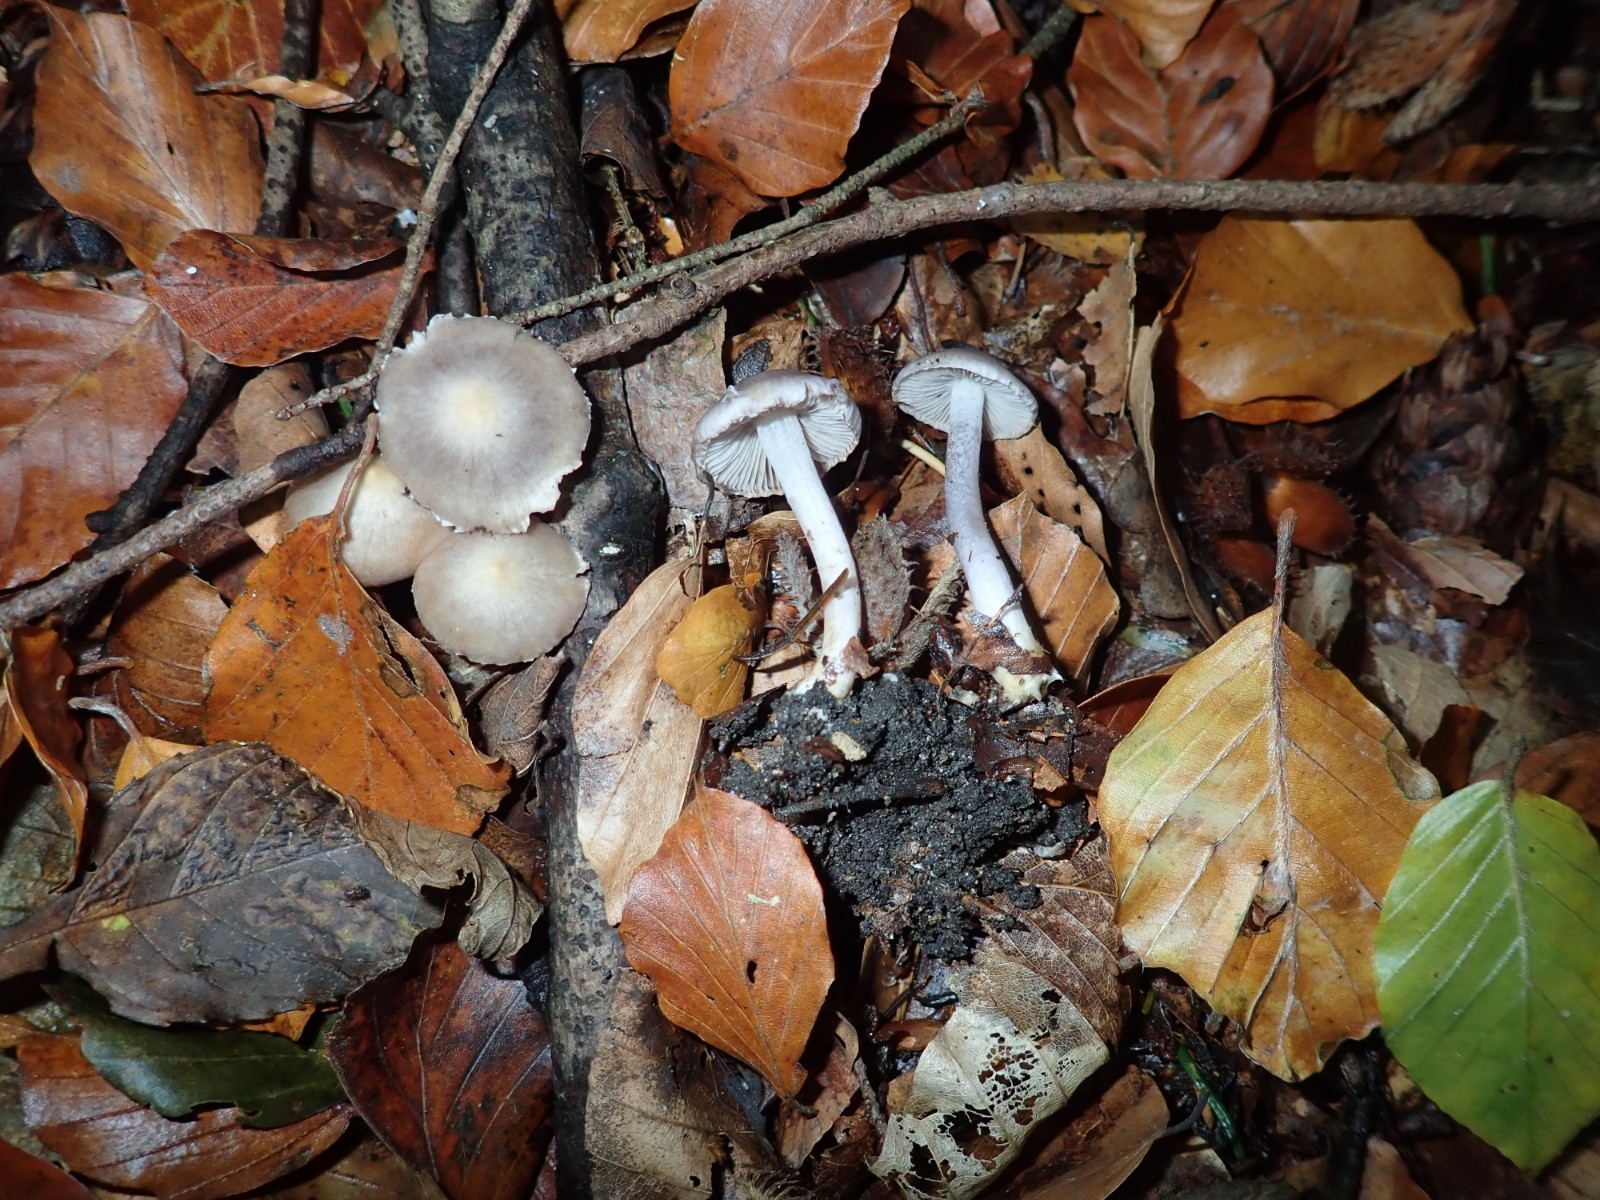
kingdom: Fungi
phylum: Basidiomycota
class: Agaricomycetes
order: Agaricales
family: Inocybaceae
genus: Inocybe
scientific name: Inocybe geophylla
